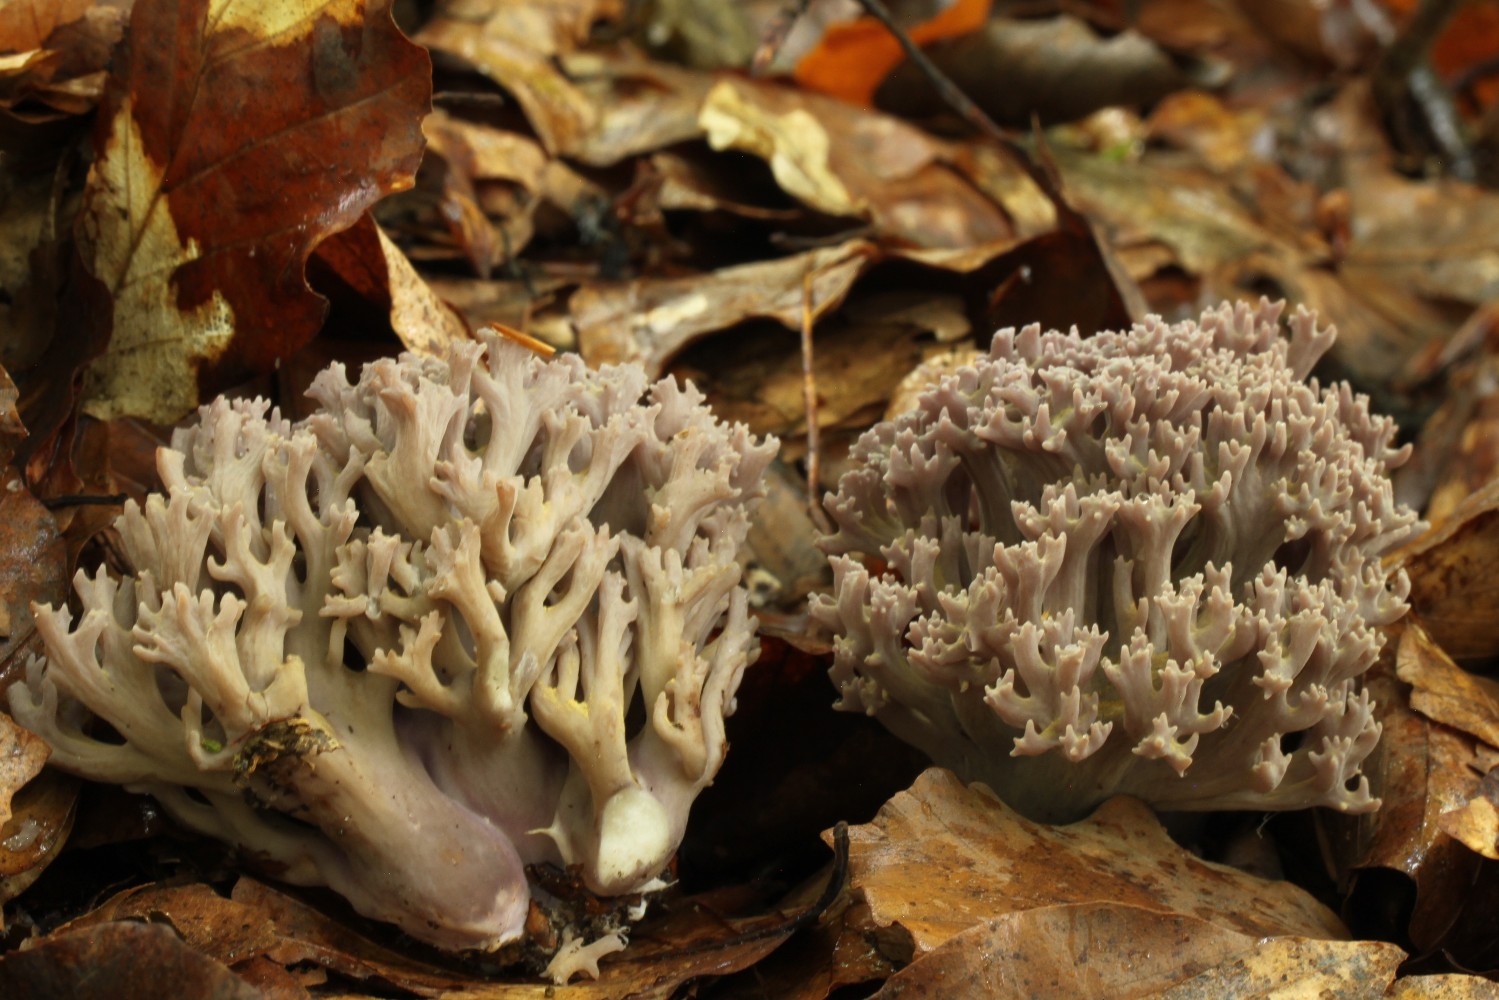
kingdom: Fungi
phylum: Basidiomycota
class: Agaricomycetes
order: Gomphales
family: Gomphaceae
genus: Ramaria
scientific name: Ramaria fumigata
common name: violet koralsvamp
